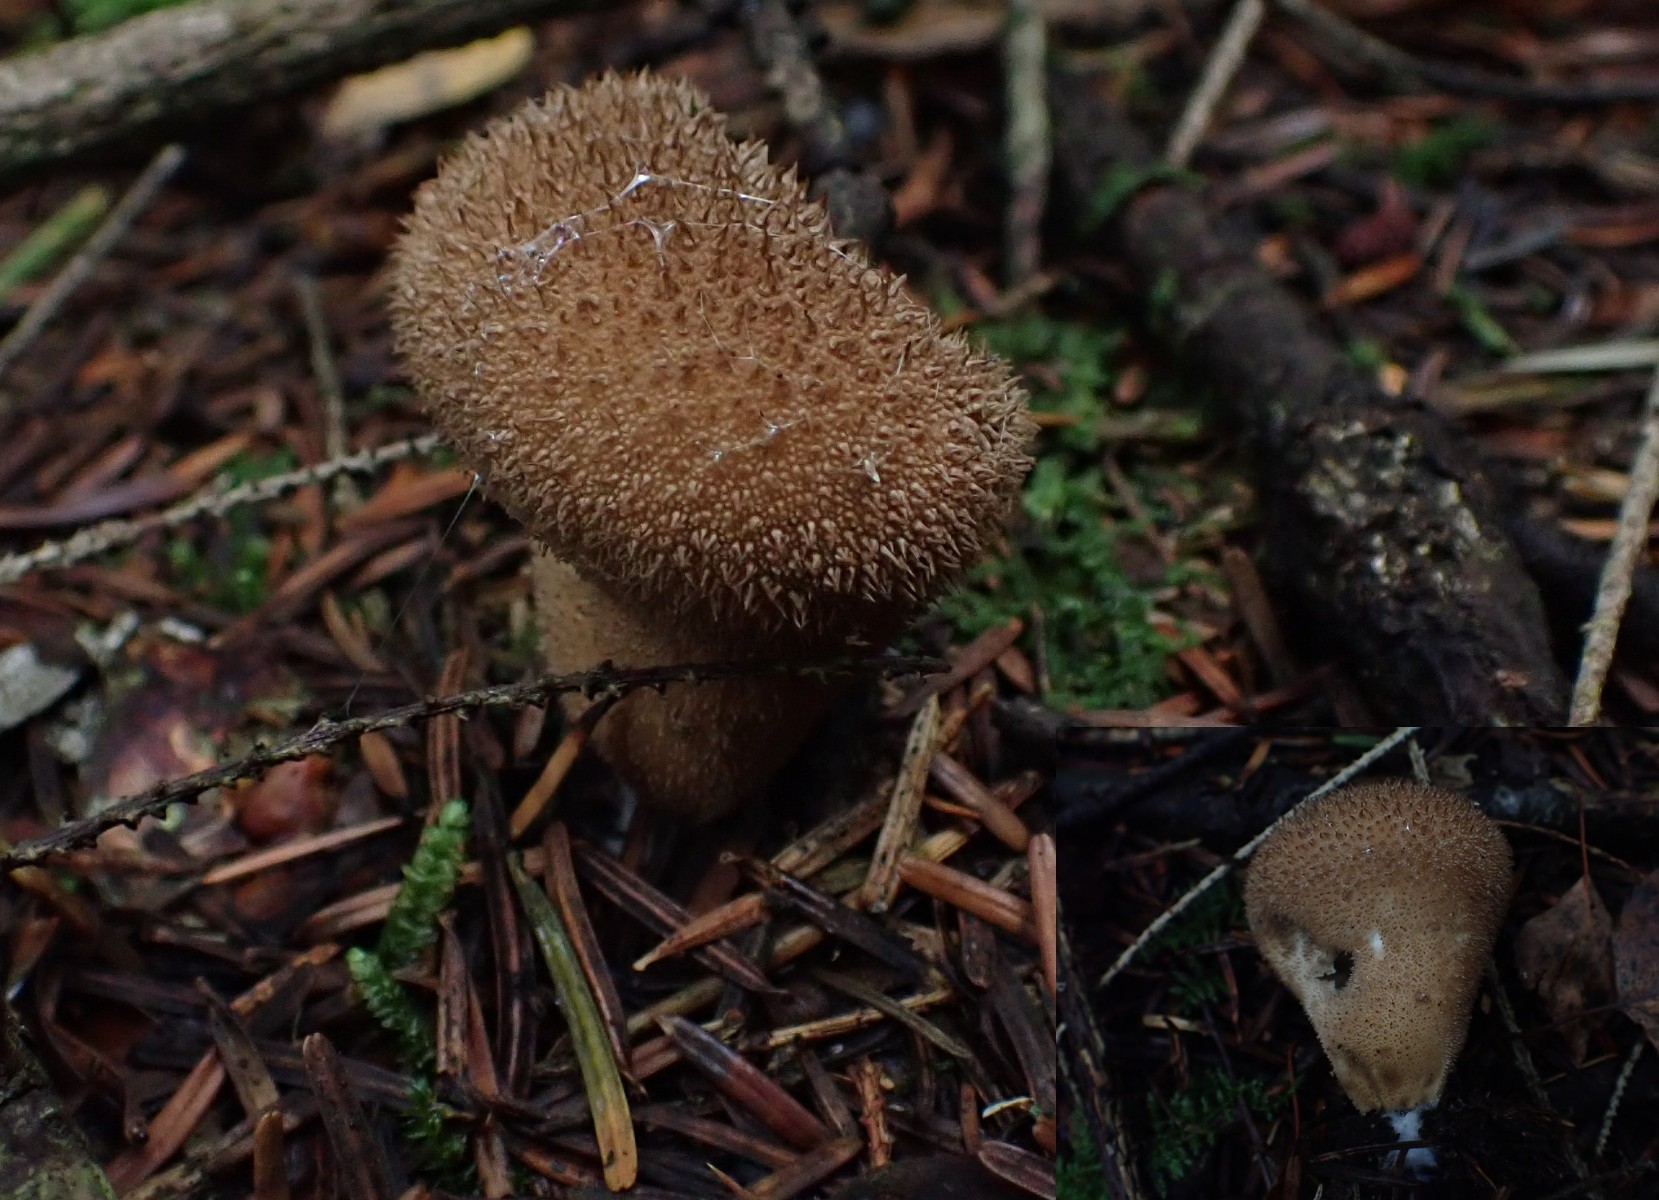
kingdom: Fungi
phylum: Basidiomycota
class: Agaricomycetes
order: Agaricales
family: Lycoperdaceae
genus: Lycoperdon
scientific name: Lycoperdon nigrescens
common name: sortagtig støvbold
